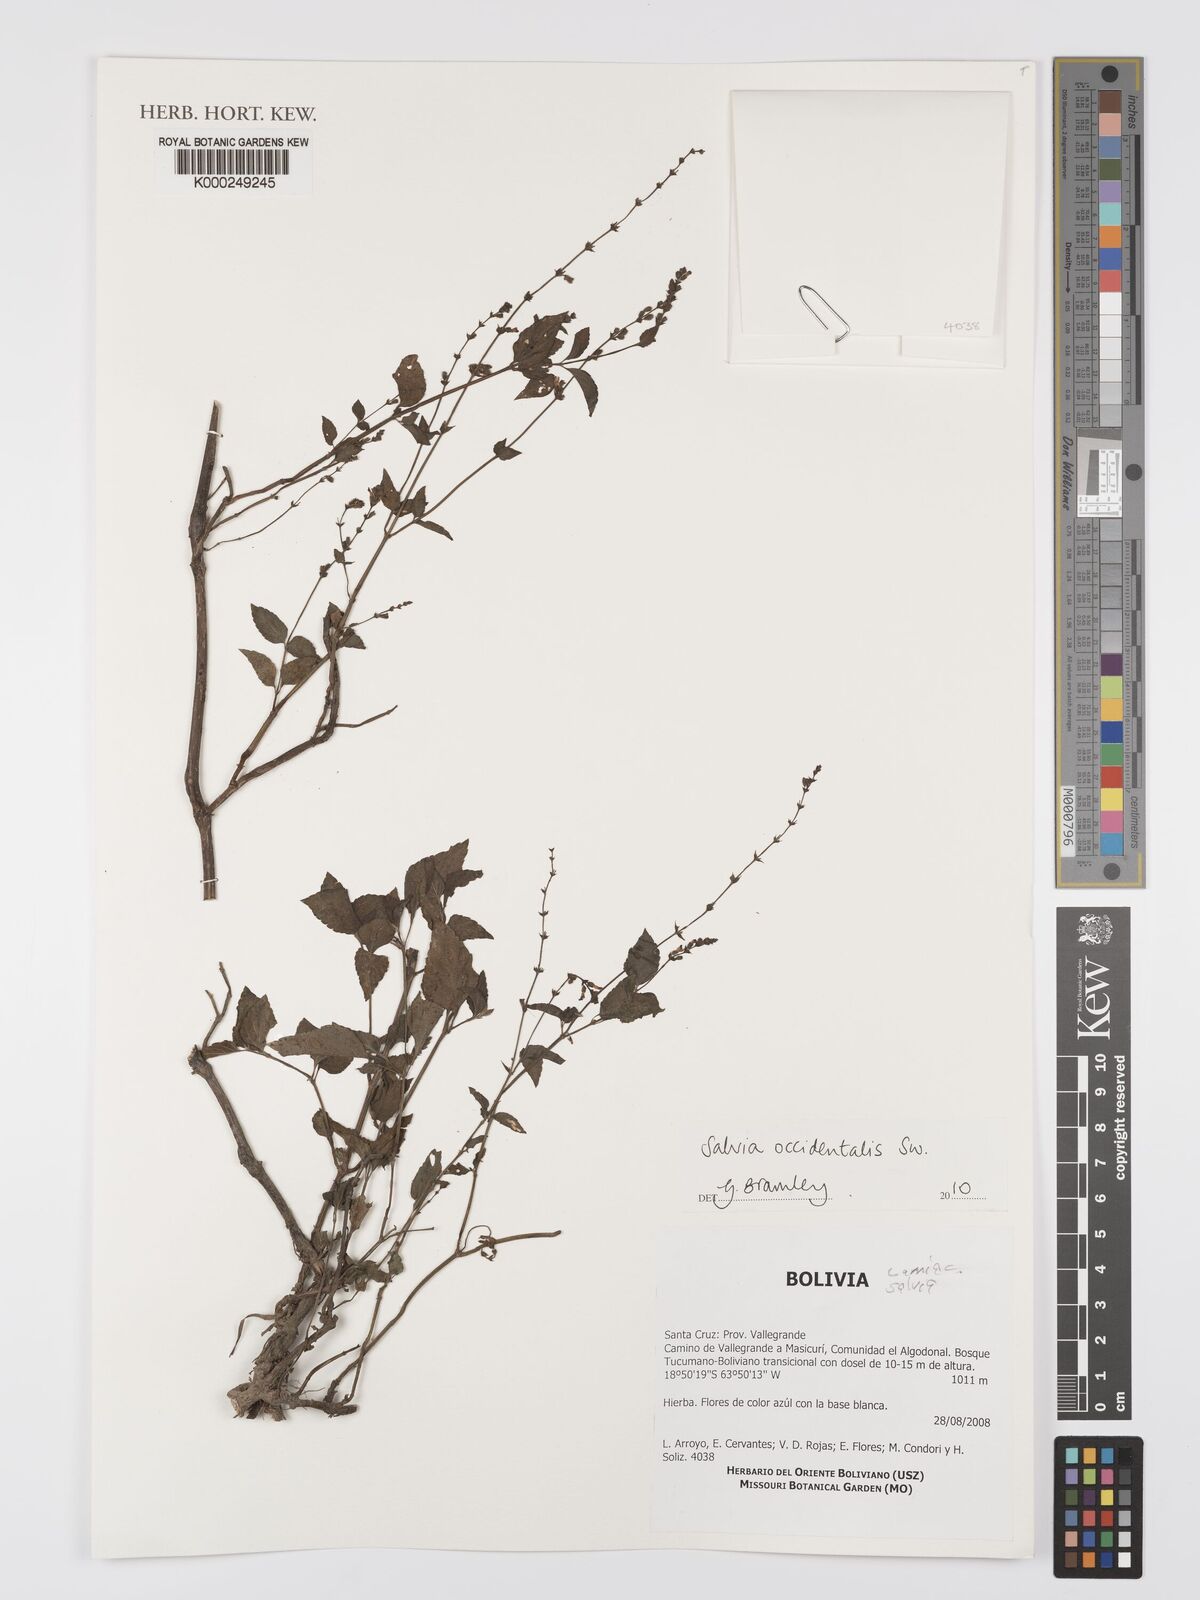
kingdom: Plantae
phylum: Tracheophyta
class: Magnoliopsida
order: Lamiales
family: Lamiaceae
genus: Salvia
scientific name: Salvia occidentalis
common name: West indian sage
